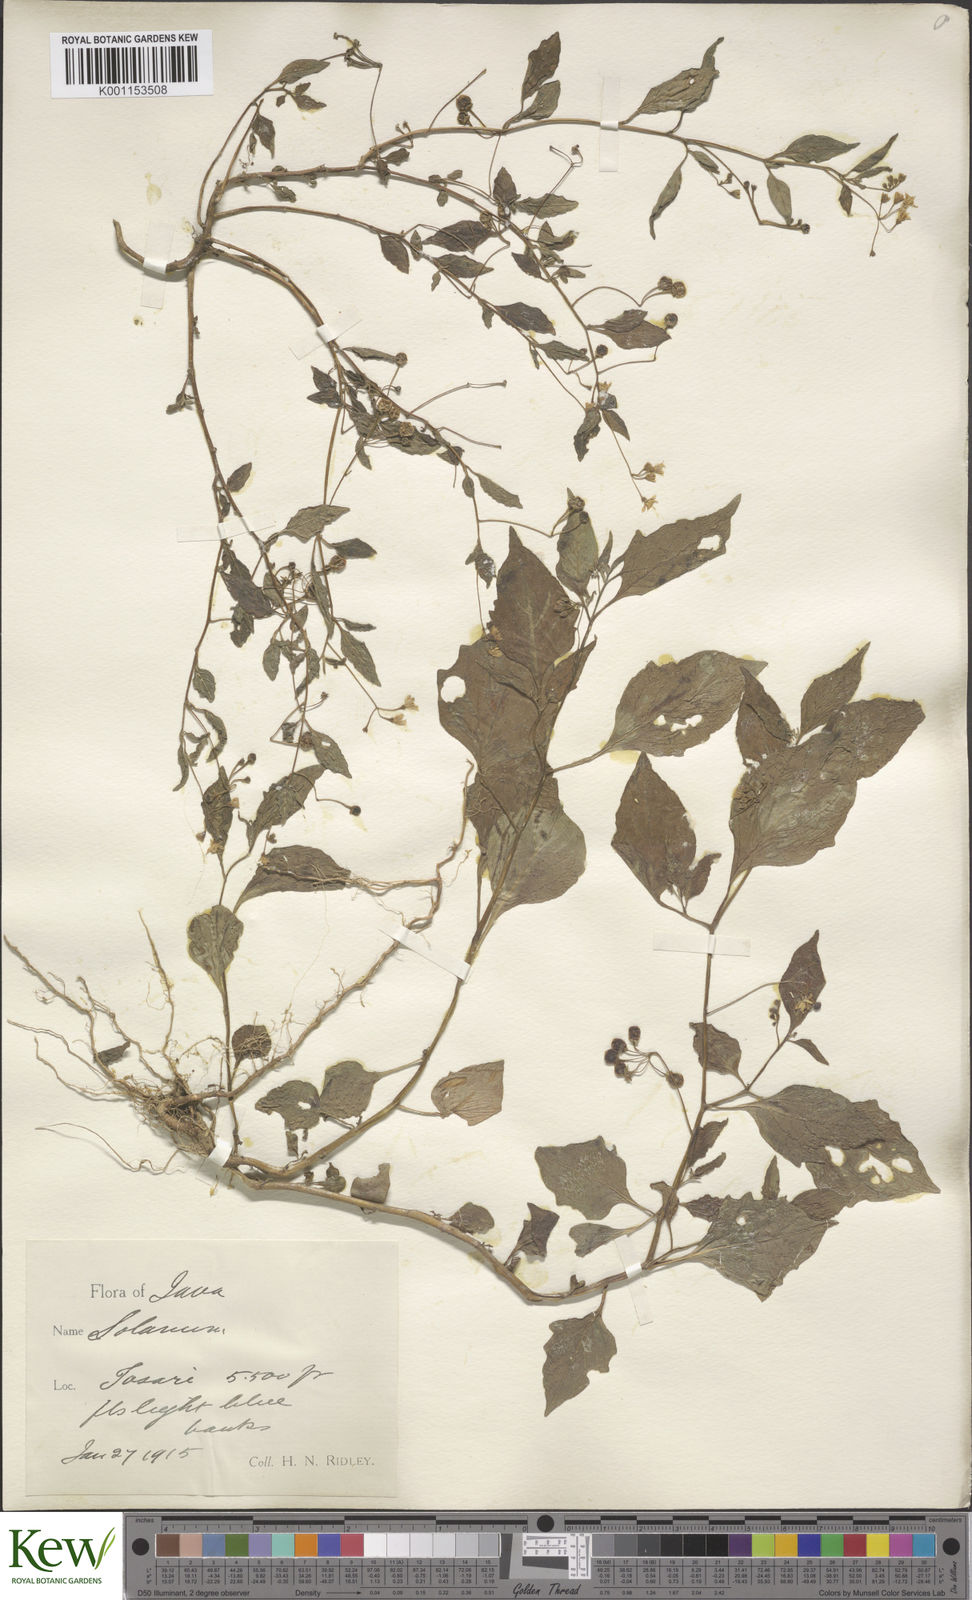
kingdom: Plantae
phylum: Tracheophyta
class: Magnoliopsida
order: Solanales
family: Solanaceae
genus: Solanum
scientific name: Solanum nigrum
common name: Black nightshade
